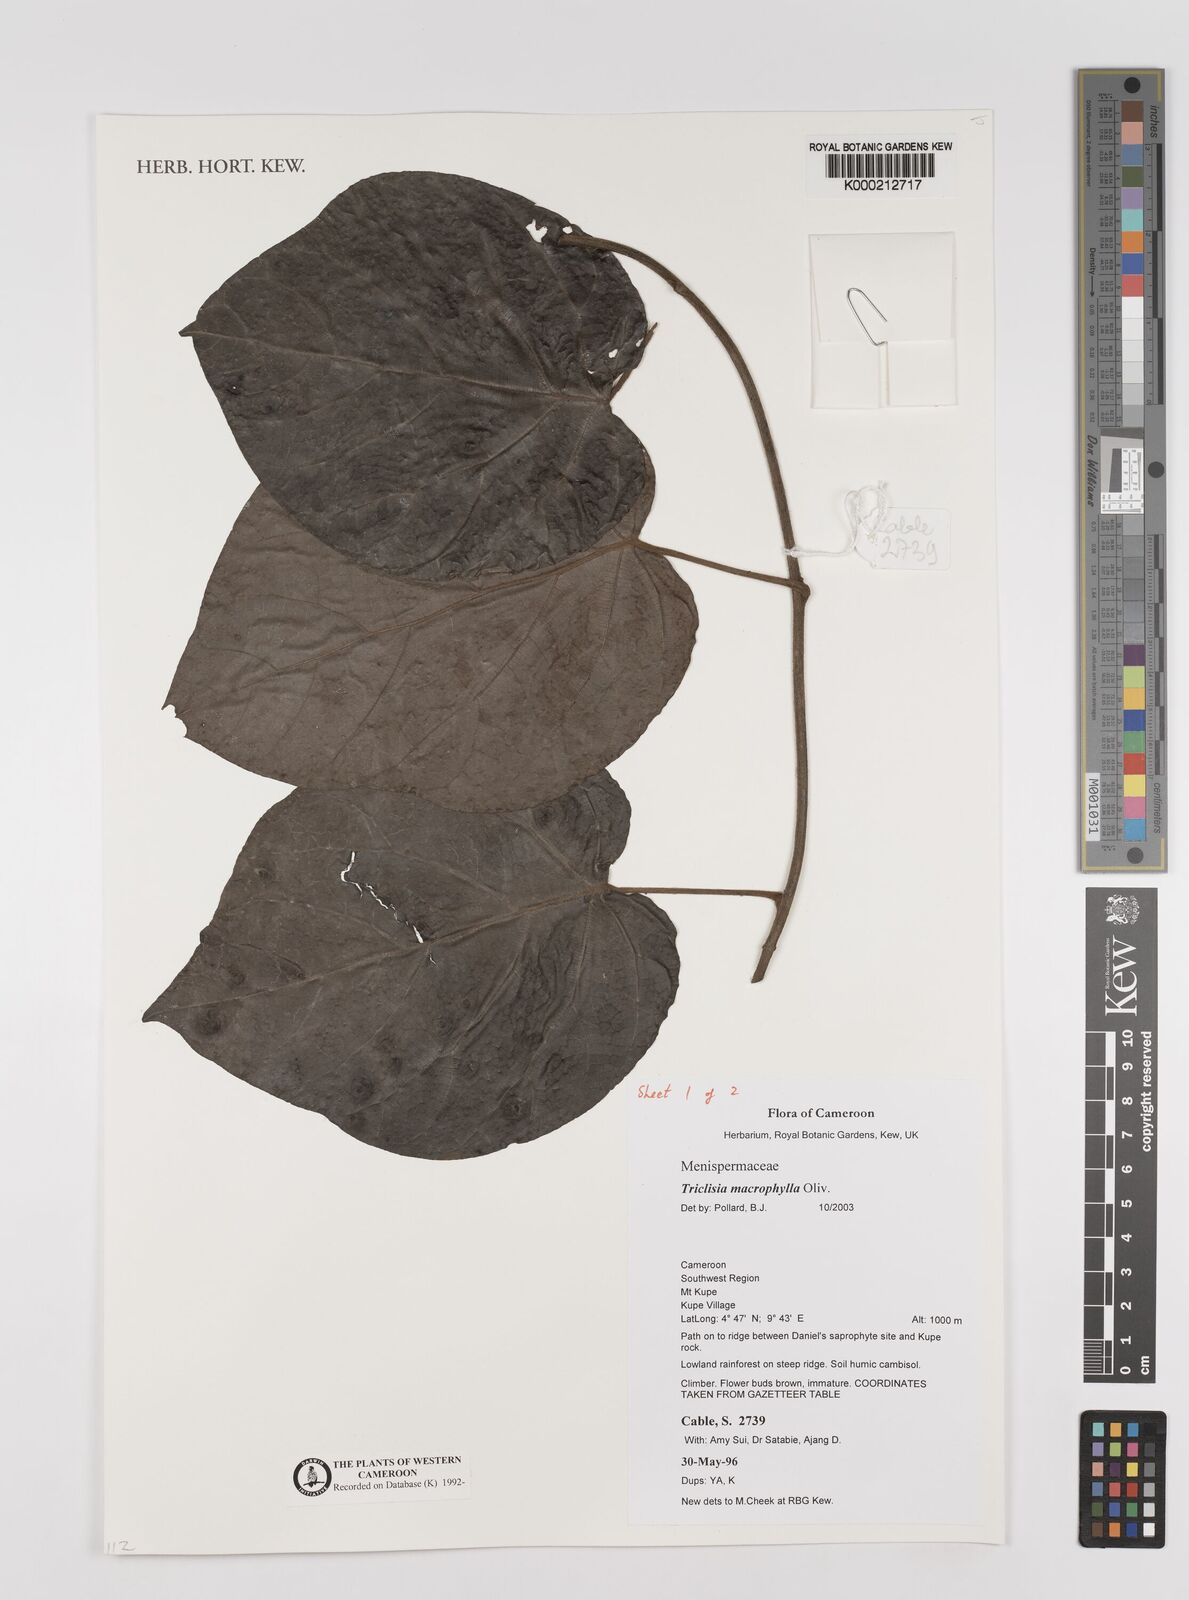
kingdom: Plantae
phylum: Tracheophyta
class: Magnoliopsida
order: Ranunculales
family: Menispermaceae
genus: Triclisia
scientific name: Triclisia macrophylla
